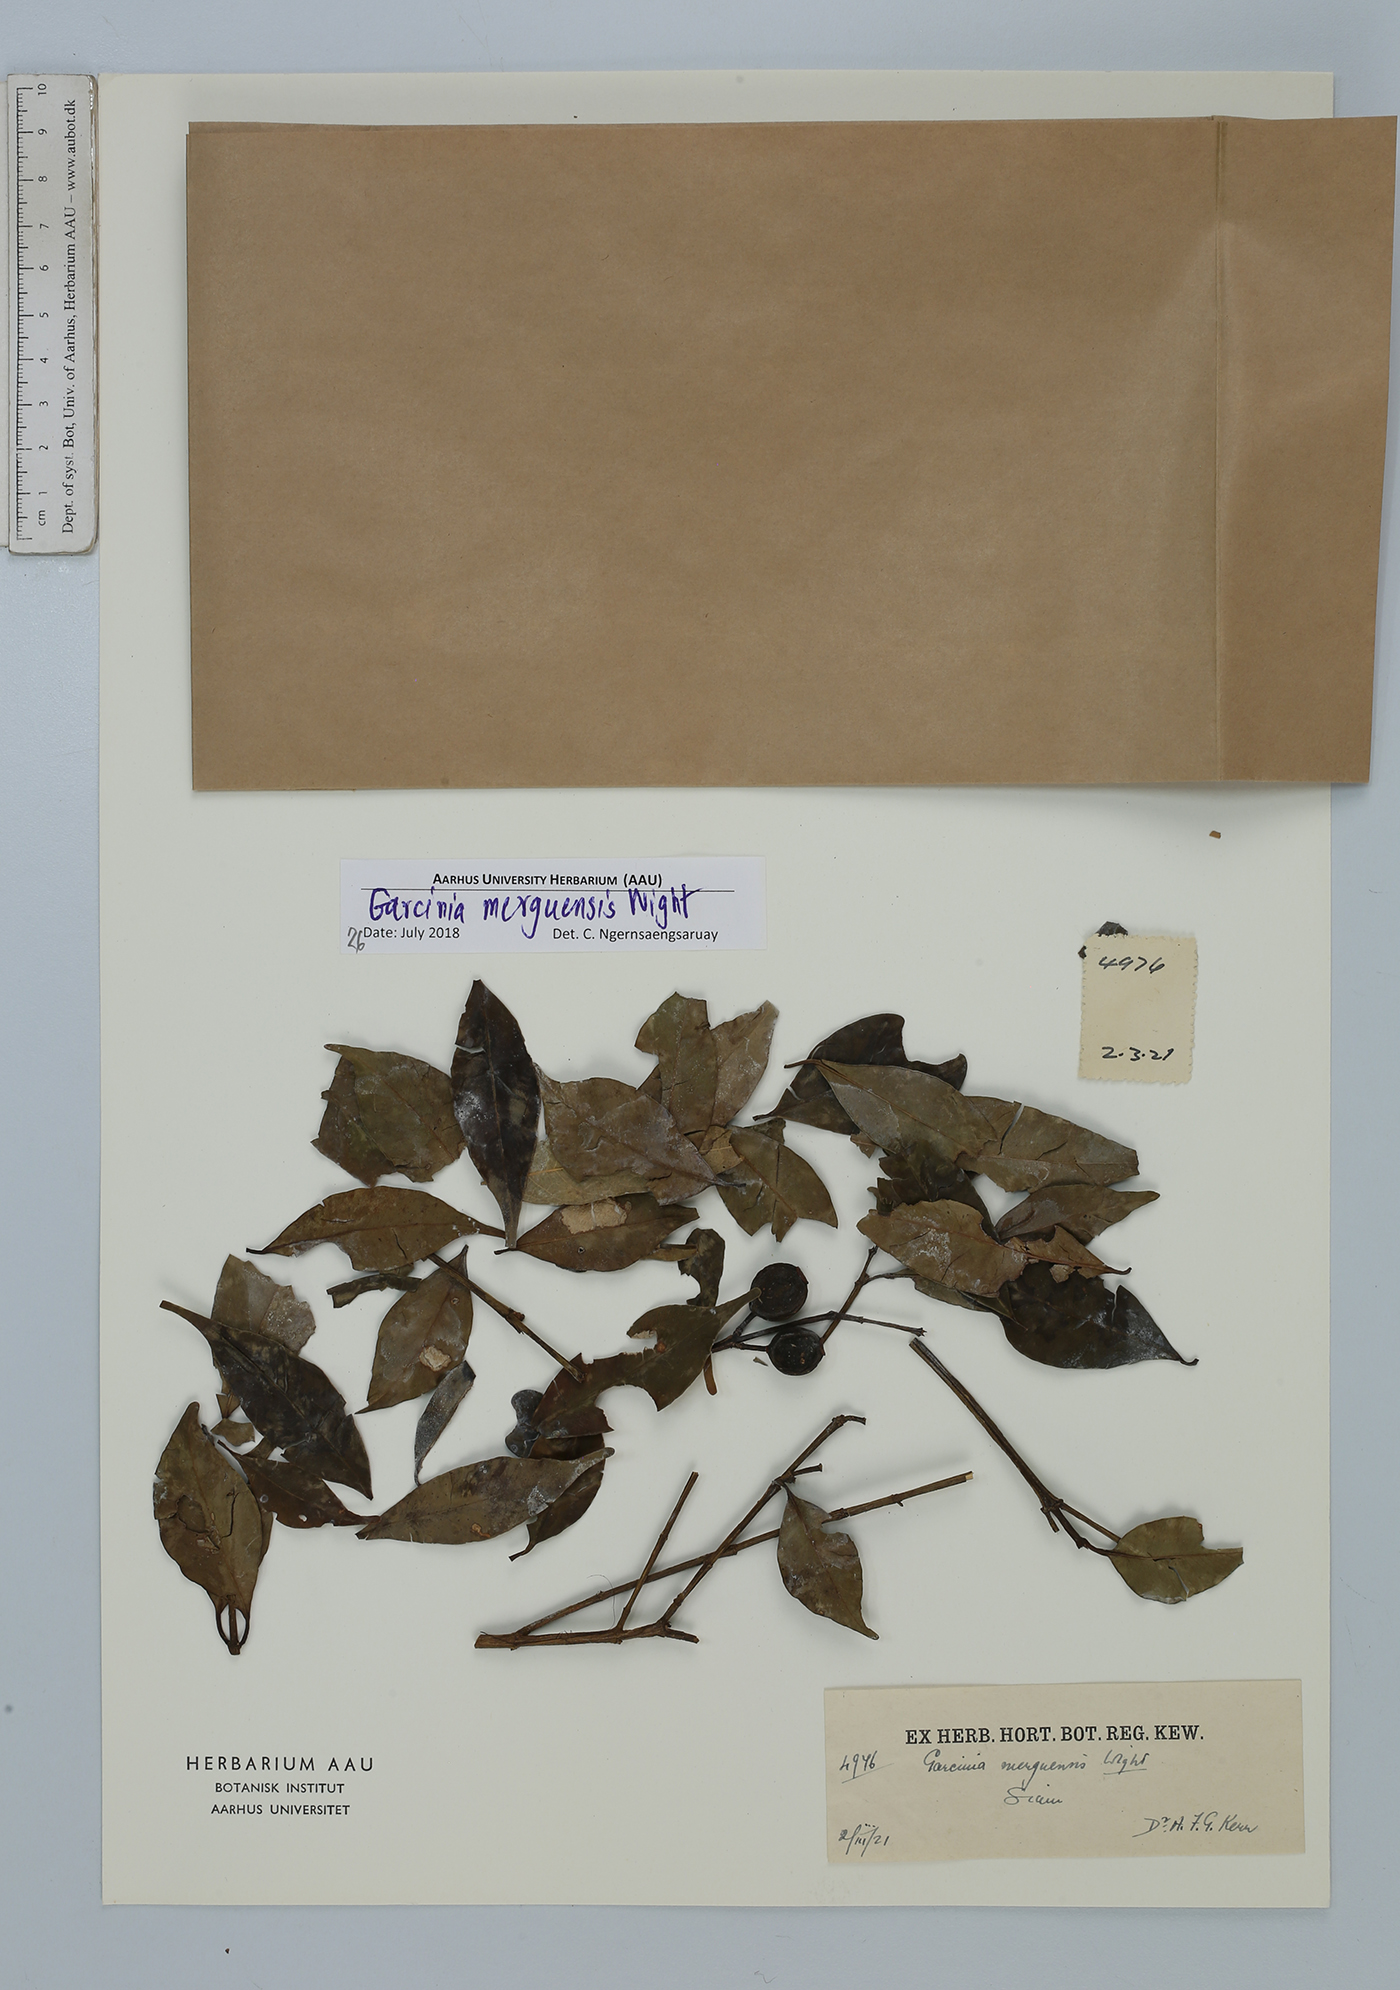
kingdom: Plantae
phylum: Tracheophyta
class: Magnoliopsida
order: Malpighiales
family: Clusiaceae
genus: Garcinia
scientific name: Garcinia merguensis
